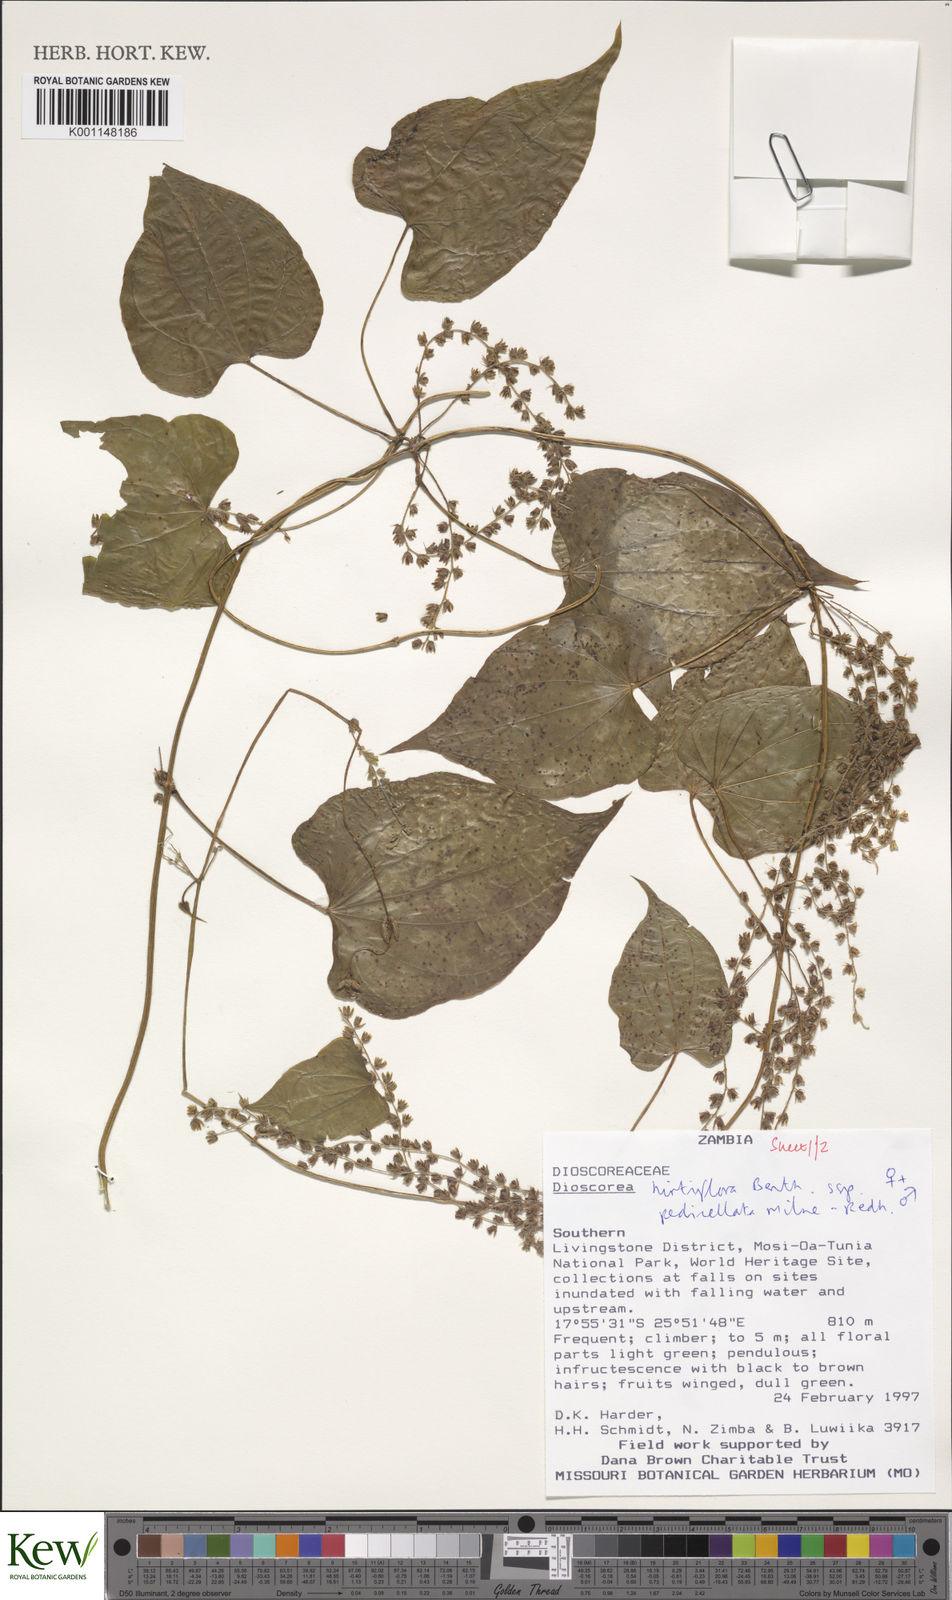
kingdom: Plantae
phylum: Tracheophyta
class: Liliopsida
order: Dioscoreales
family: Dioscoreaceae
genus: Dioscorea
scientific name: Dioscorea hirtiflora
